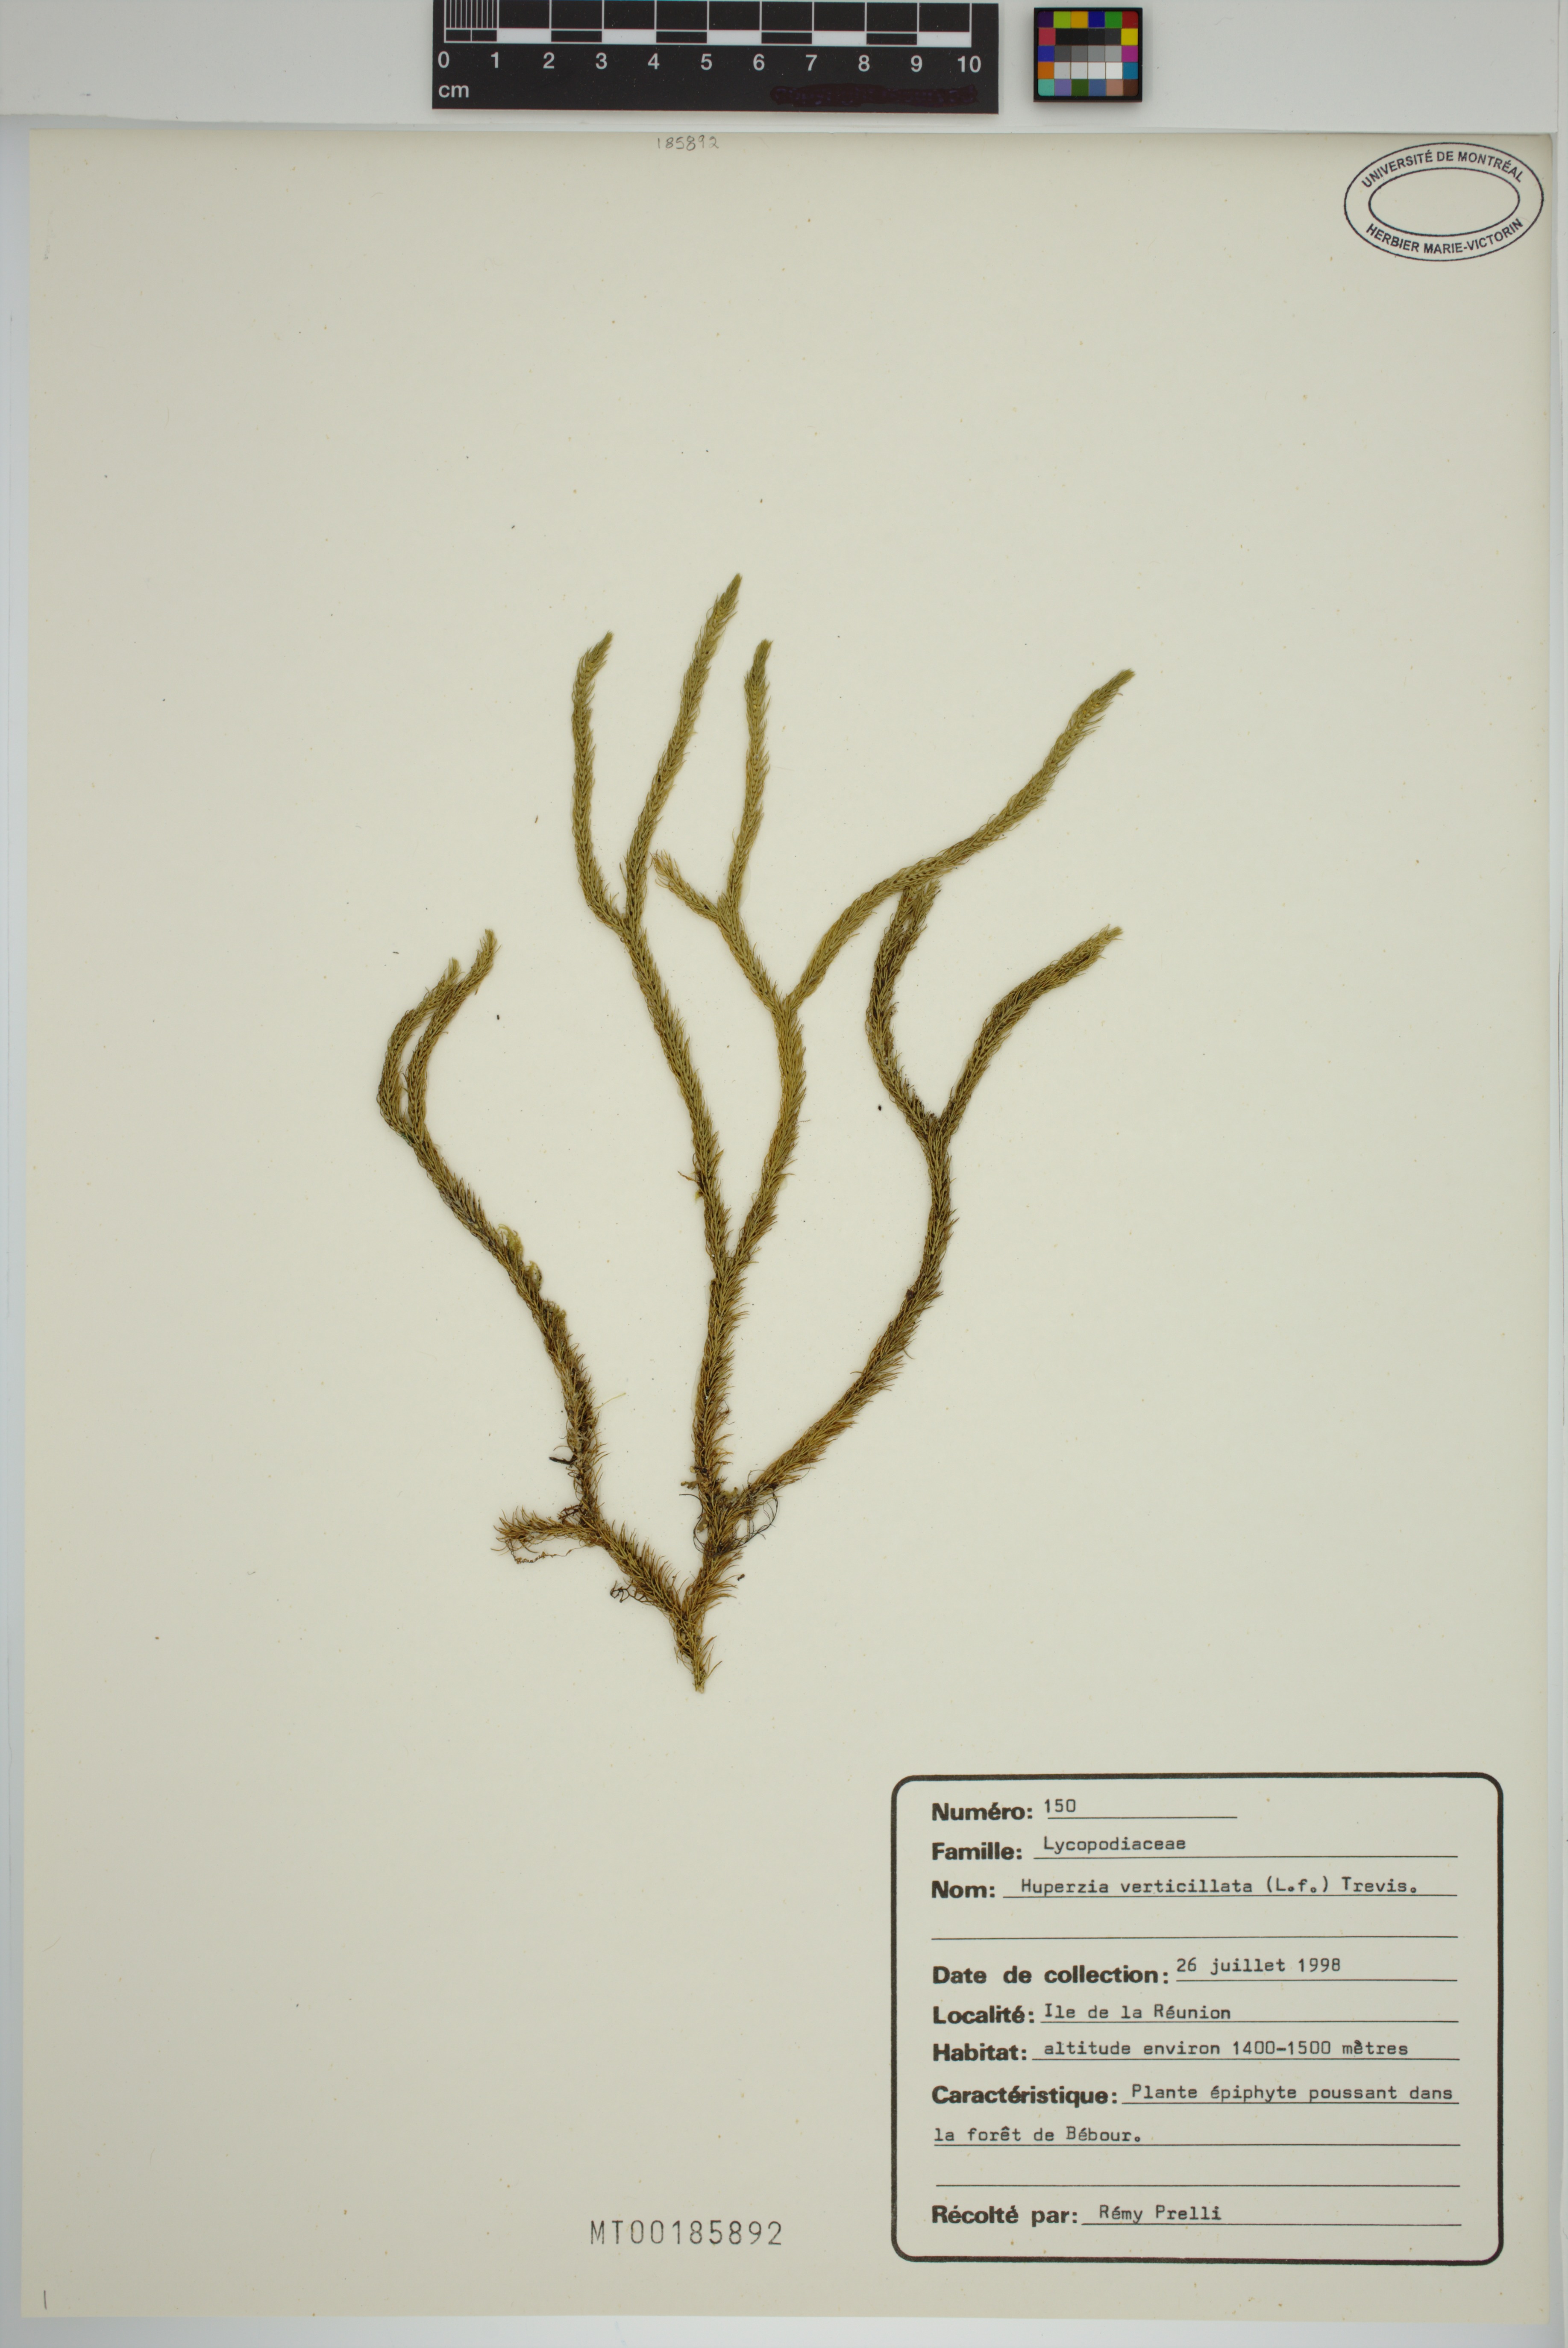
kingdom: Plantae
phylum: Tracheophyta
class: Lycopodiopsida
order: Lycopodiales
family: Lycopodiaceae
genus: Phlegmariurus
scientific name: Phlegmariurus filiformis
